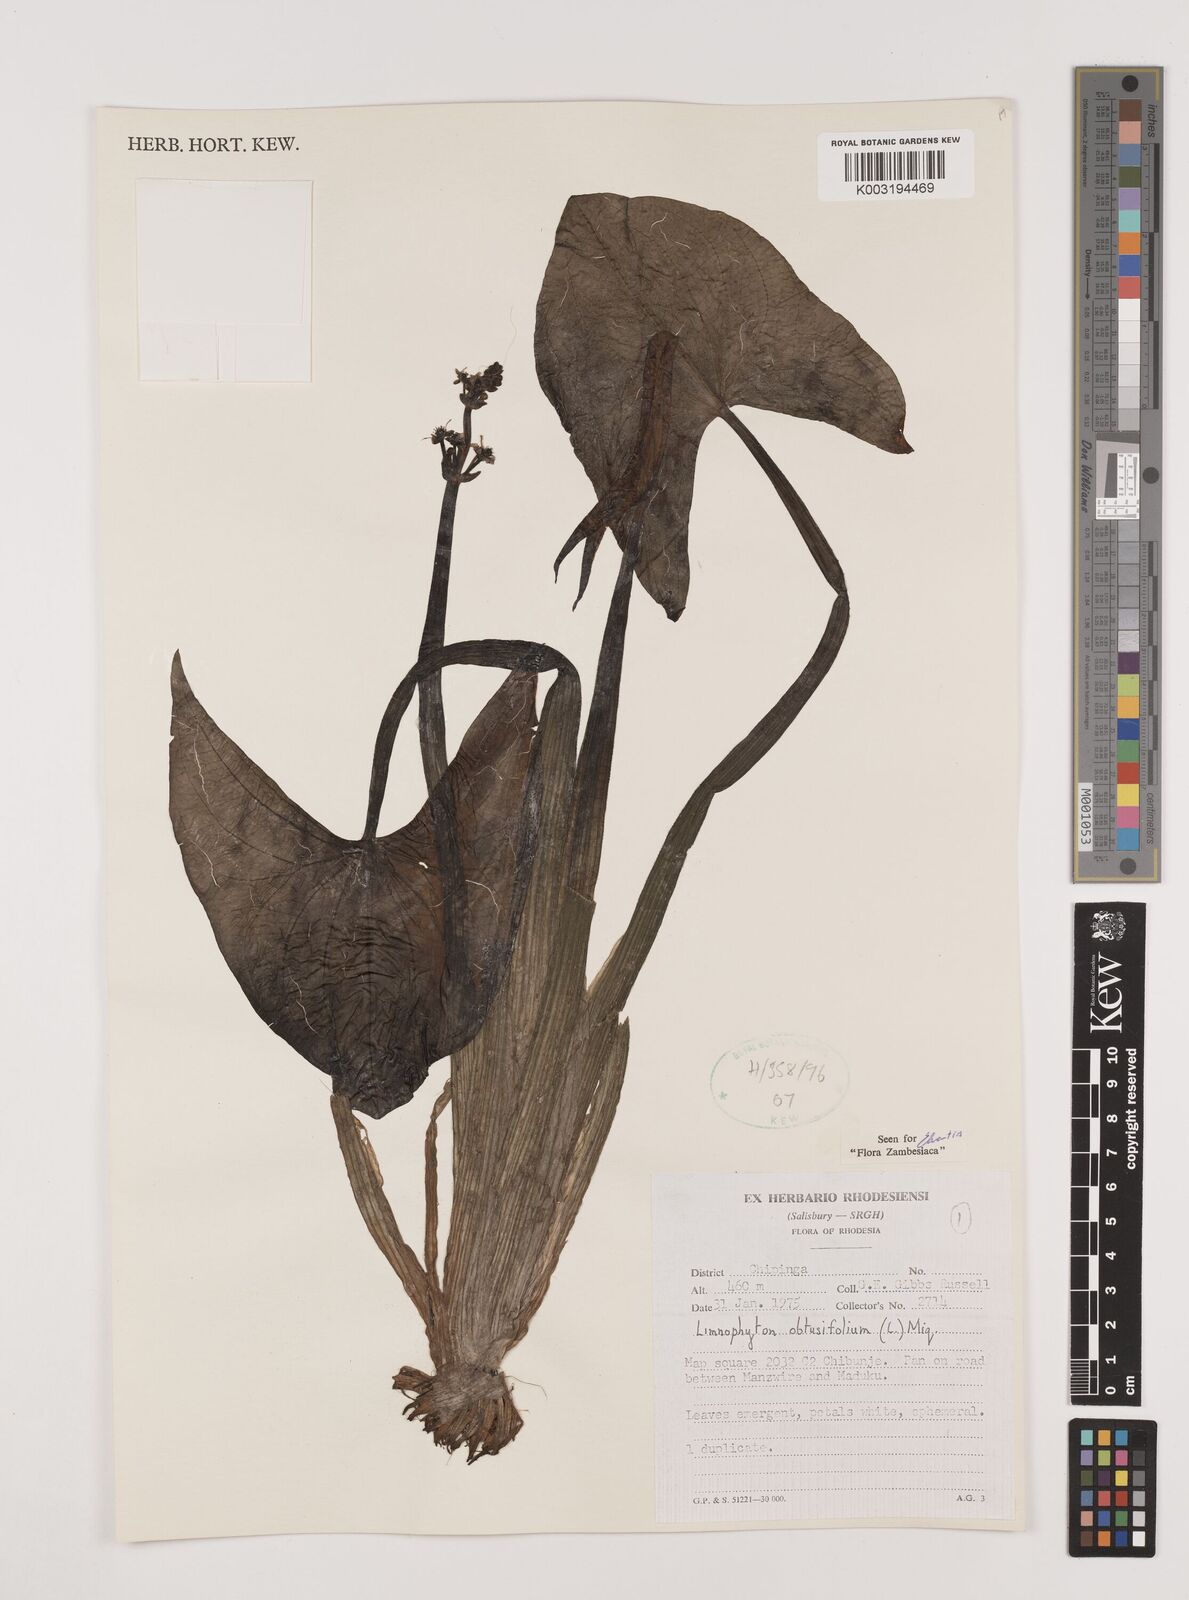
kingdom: Plantae
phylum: Tracheophyta
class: Liliopsida
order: Alismatales
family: Alismataceae
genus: Limnophyton
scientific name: Limnophyton obtusifolium
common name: Arrow head
